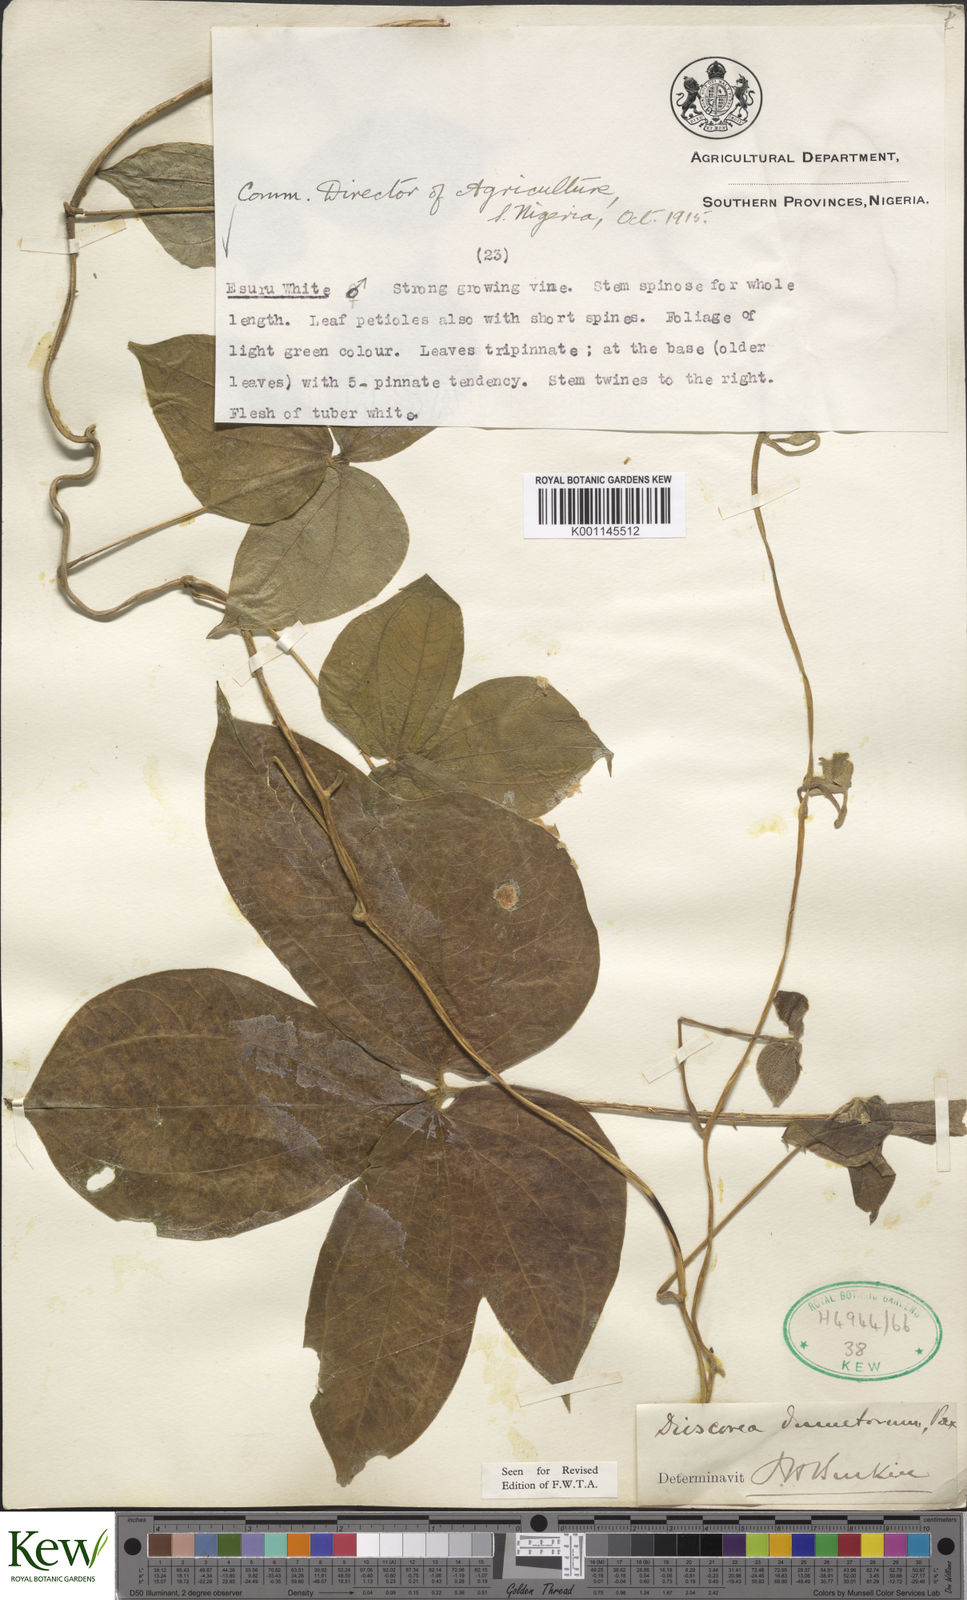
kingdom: Plantae
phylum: Tracheophyta
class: Liliopsida
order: Dioscoreales
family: Dioscoreaceae
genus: Dioscorea
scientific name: Dioscorea dumetorum
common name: African bitter yam
